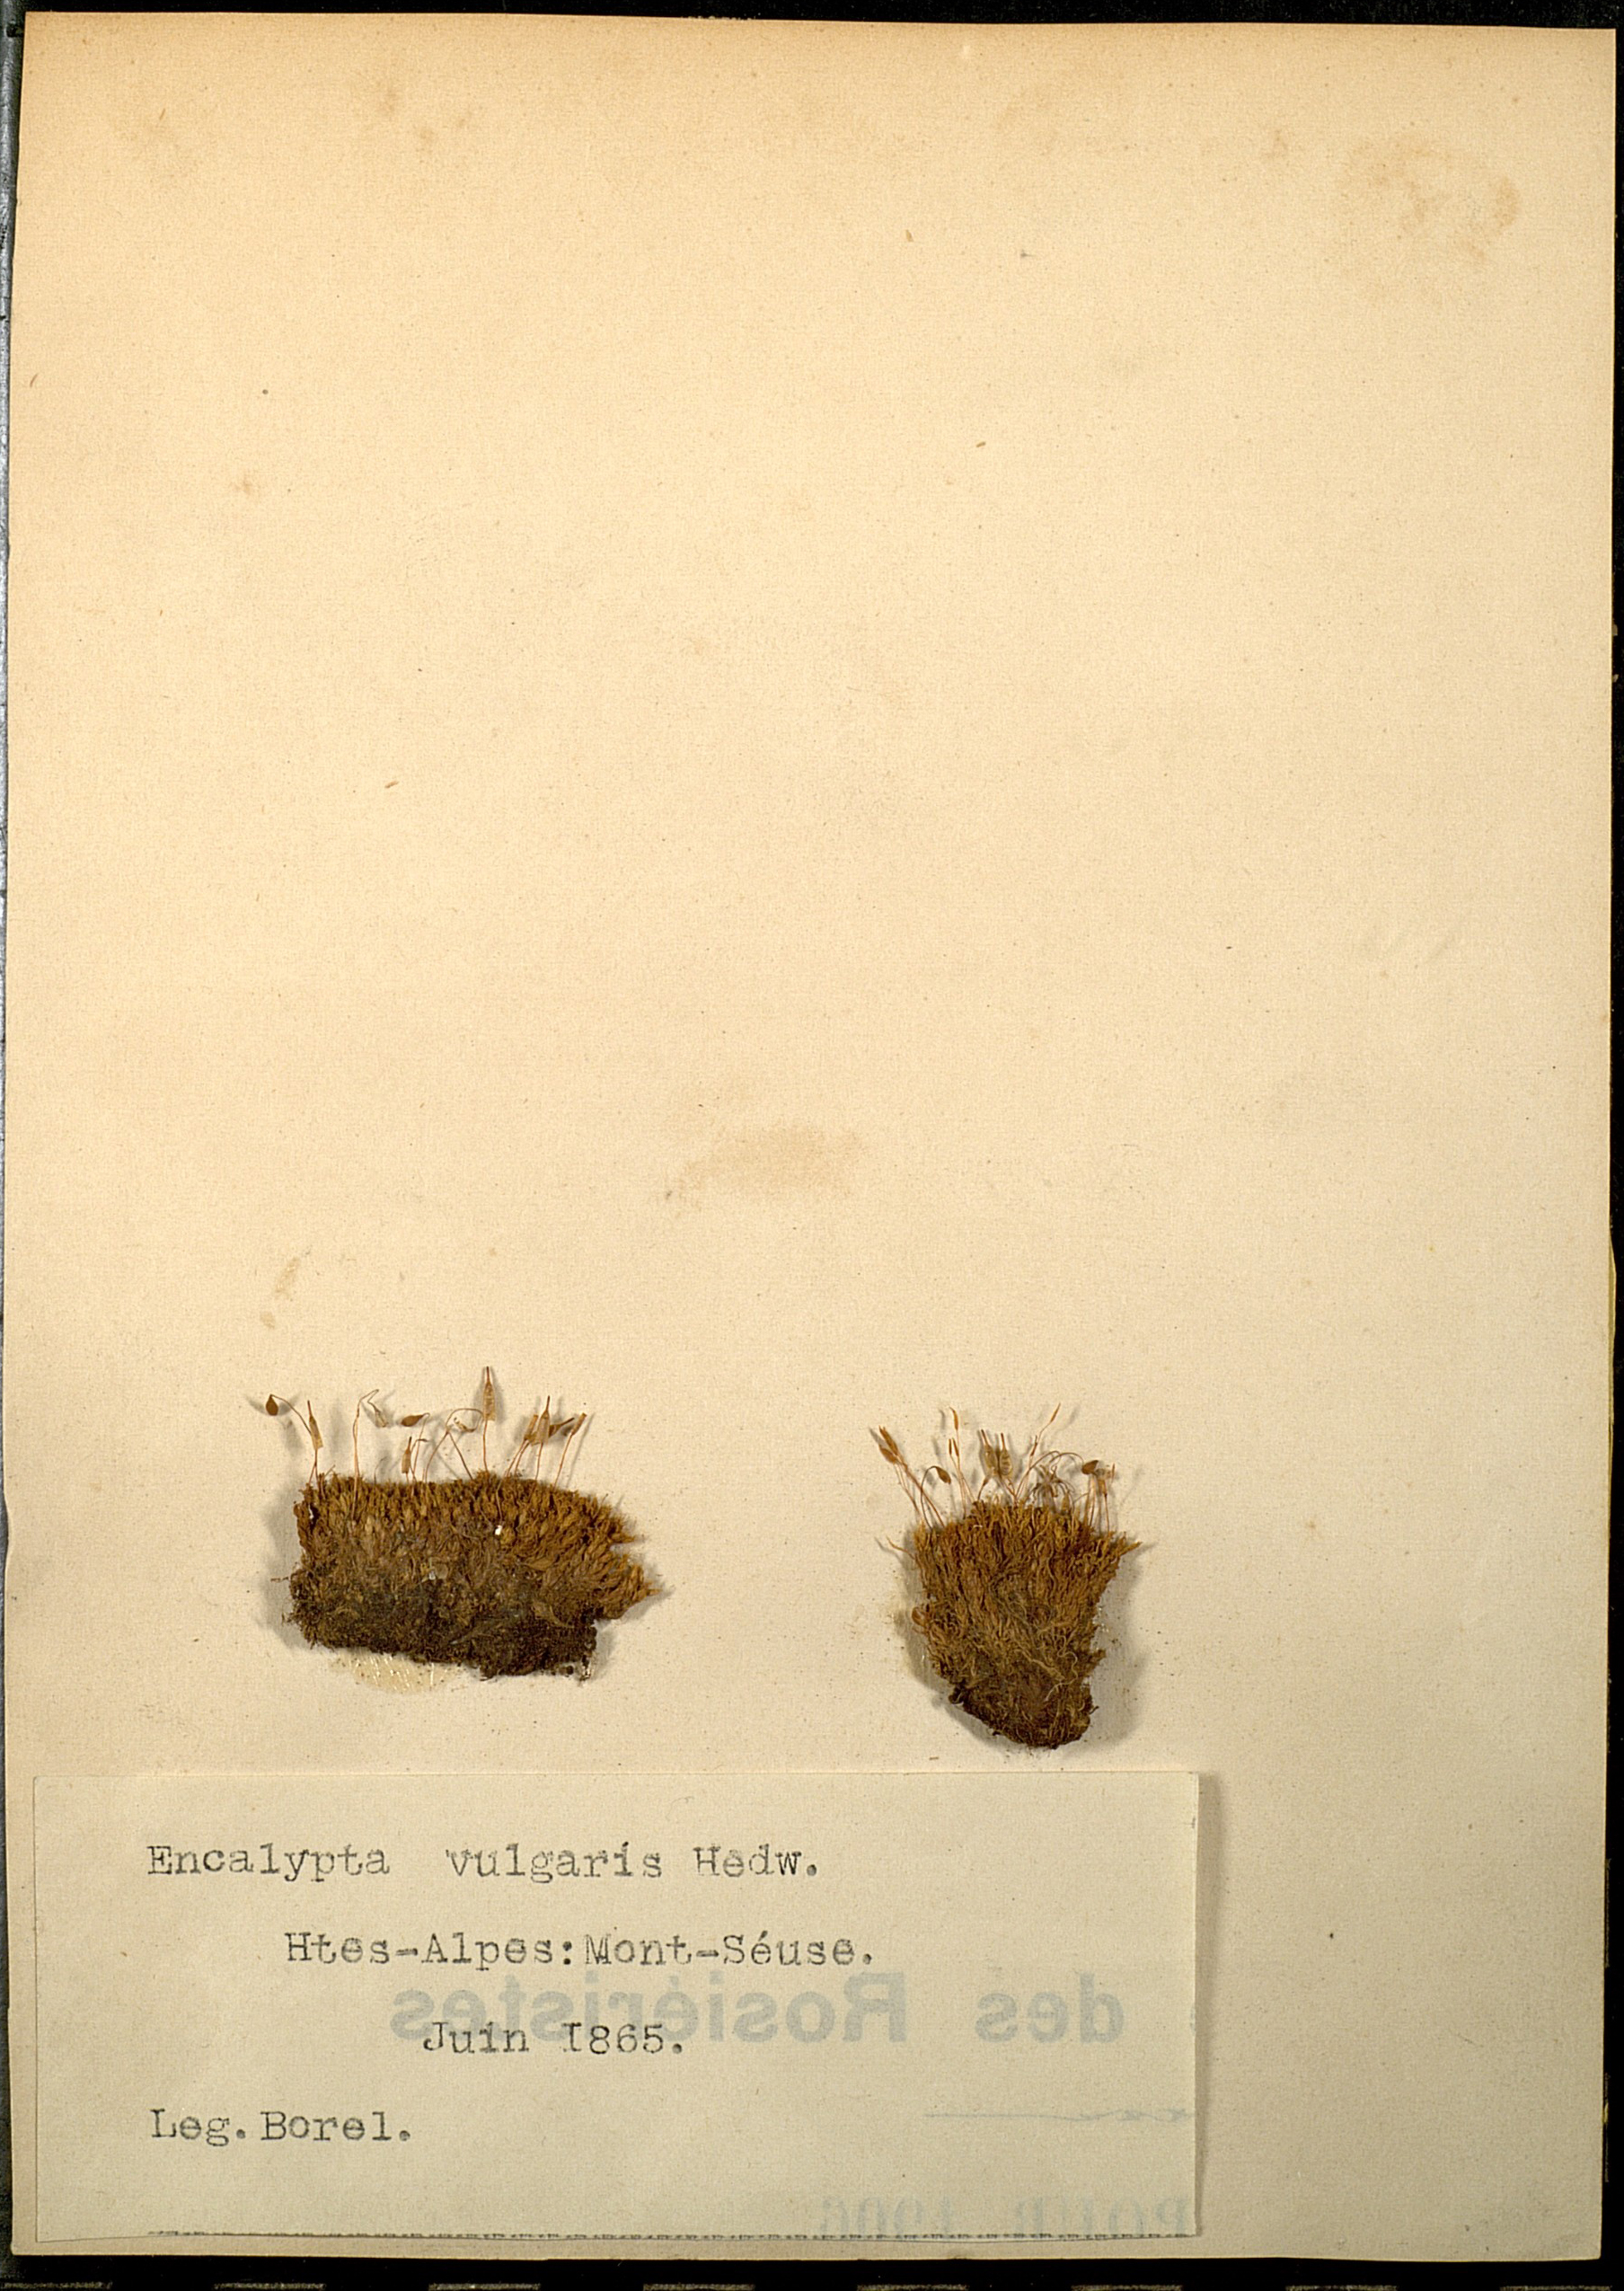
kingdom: Plantae
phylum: Bryophyta
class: Bryopsida
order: Encalyptales
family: Encalyptaceae
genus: Encalypta
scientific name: Encalypta vulgaris
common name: Common extinguisher-moss
